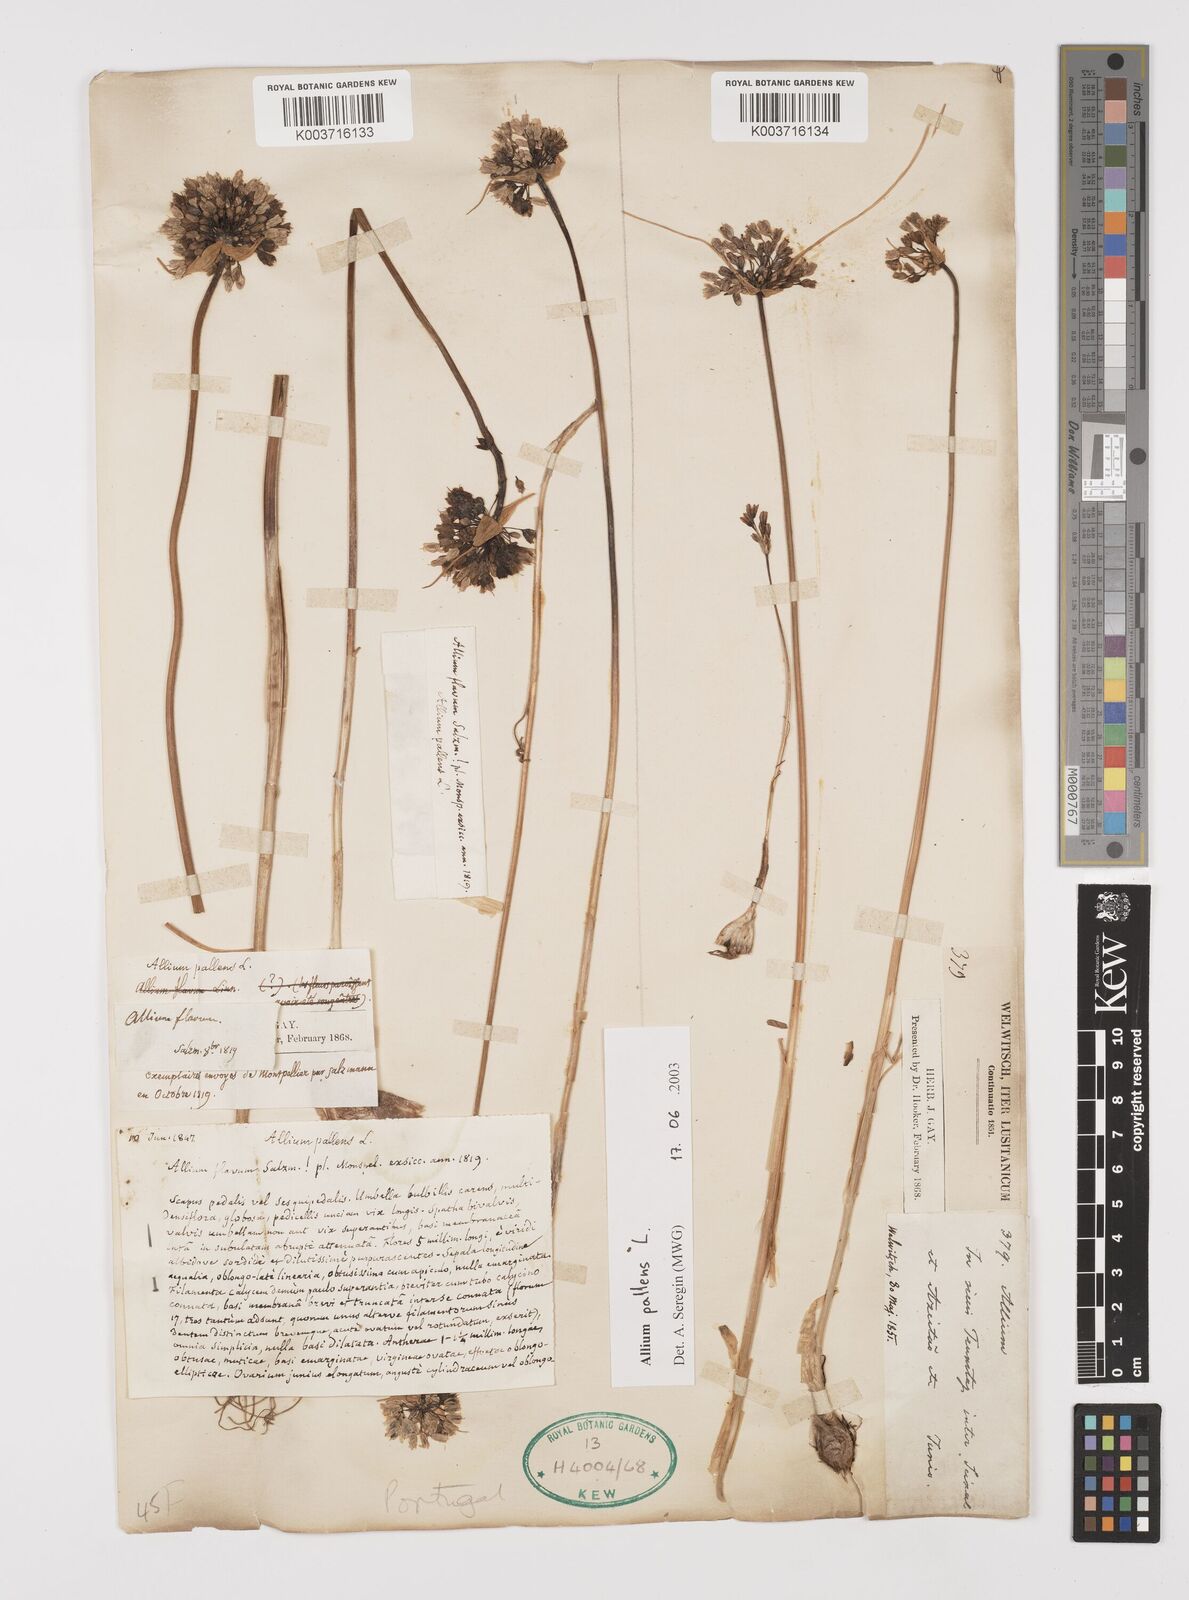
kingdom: Plantae
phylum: Tracheophyta
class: Liliopsida
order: Asparagales
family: Amaryllidaceae
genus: Allium
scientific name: Allium pallens
